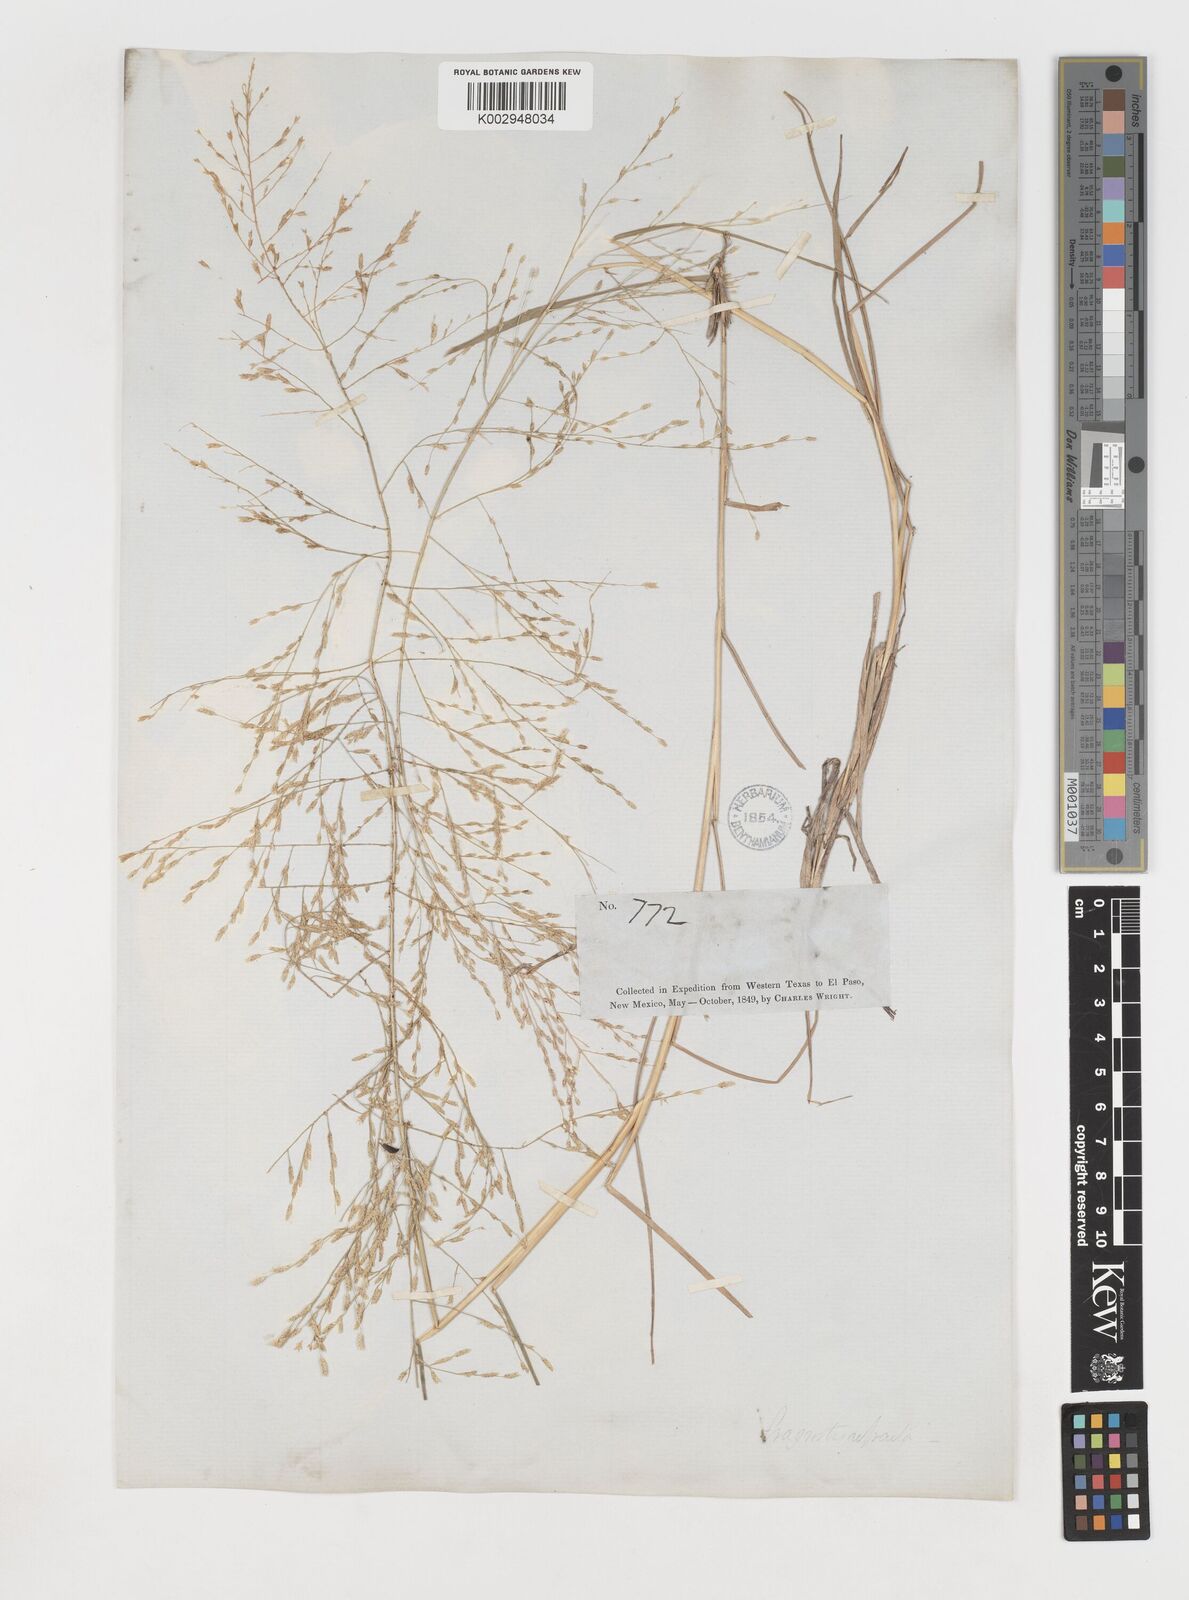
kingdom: Plantae
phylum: Tracheophyta
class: Liliopsida
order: Poales
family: Poaceae
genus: Eragrostis
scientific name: Eragrostis curtipedicellata
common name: Gummy love grass
